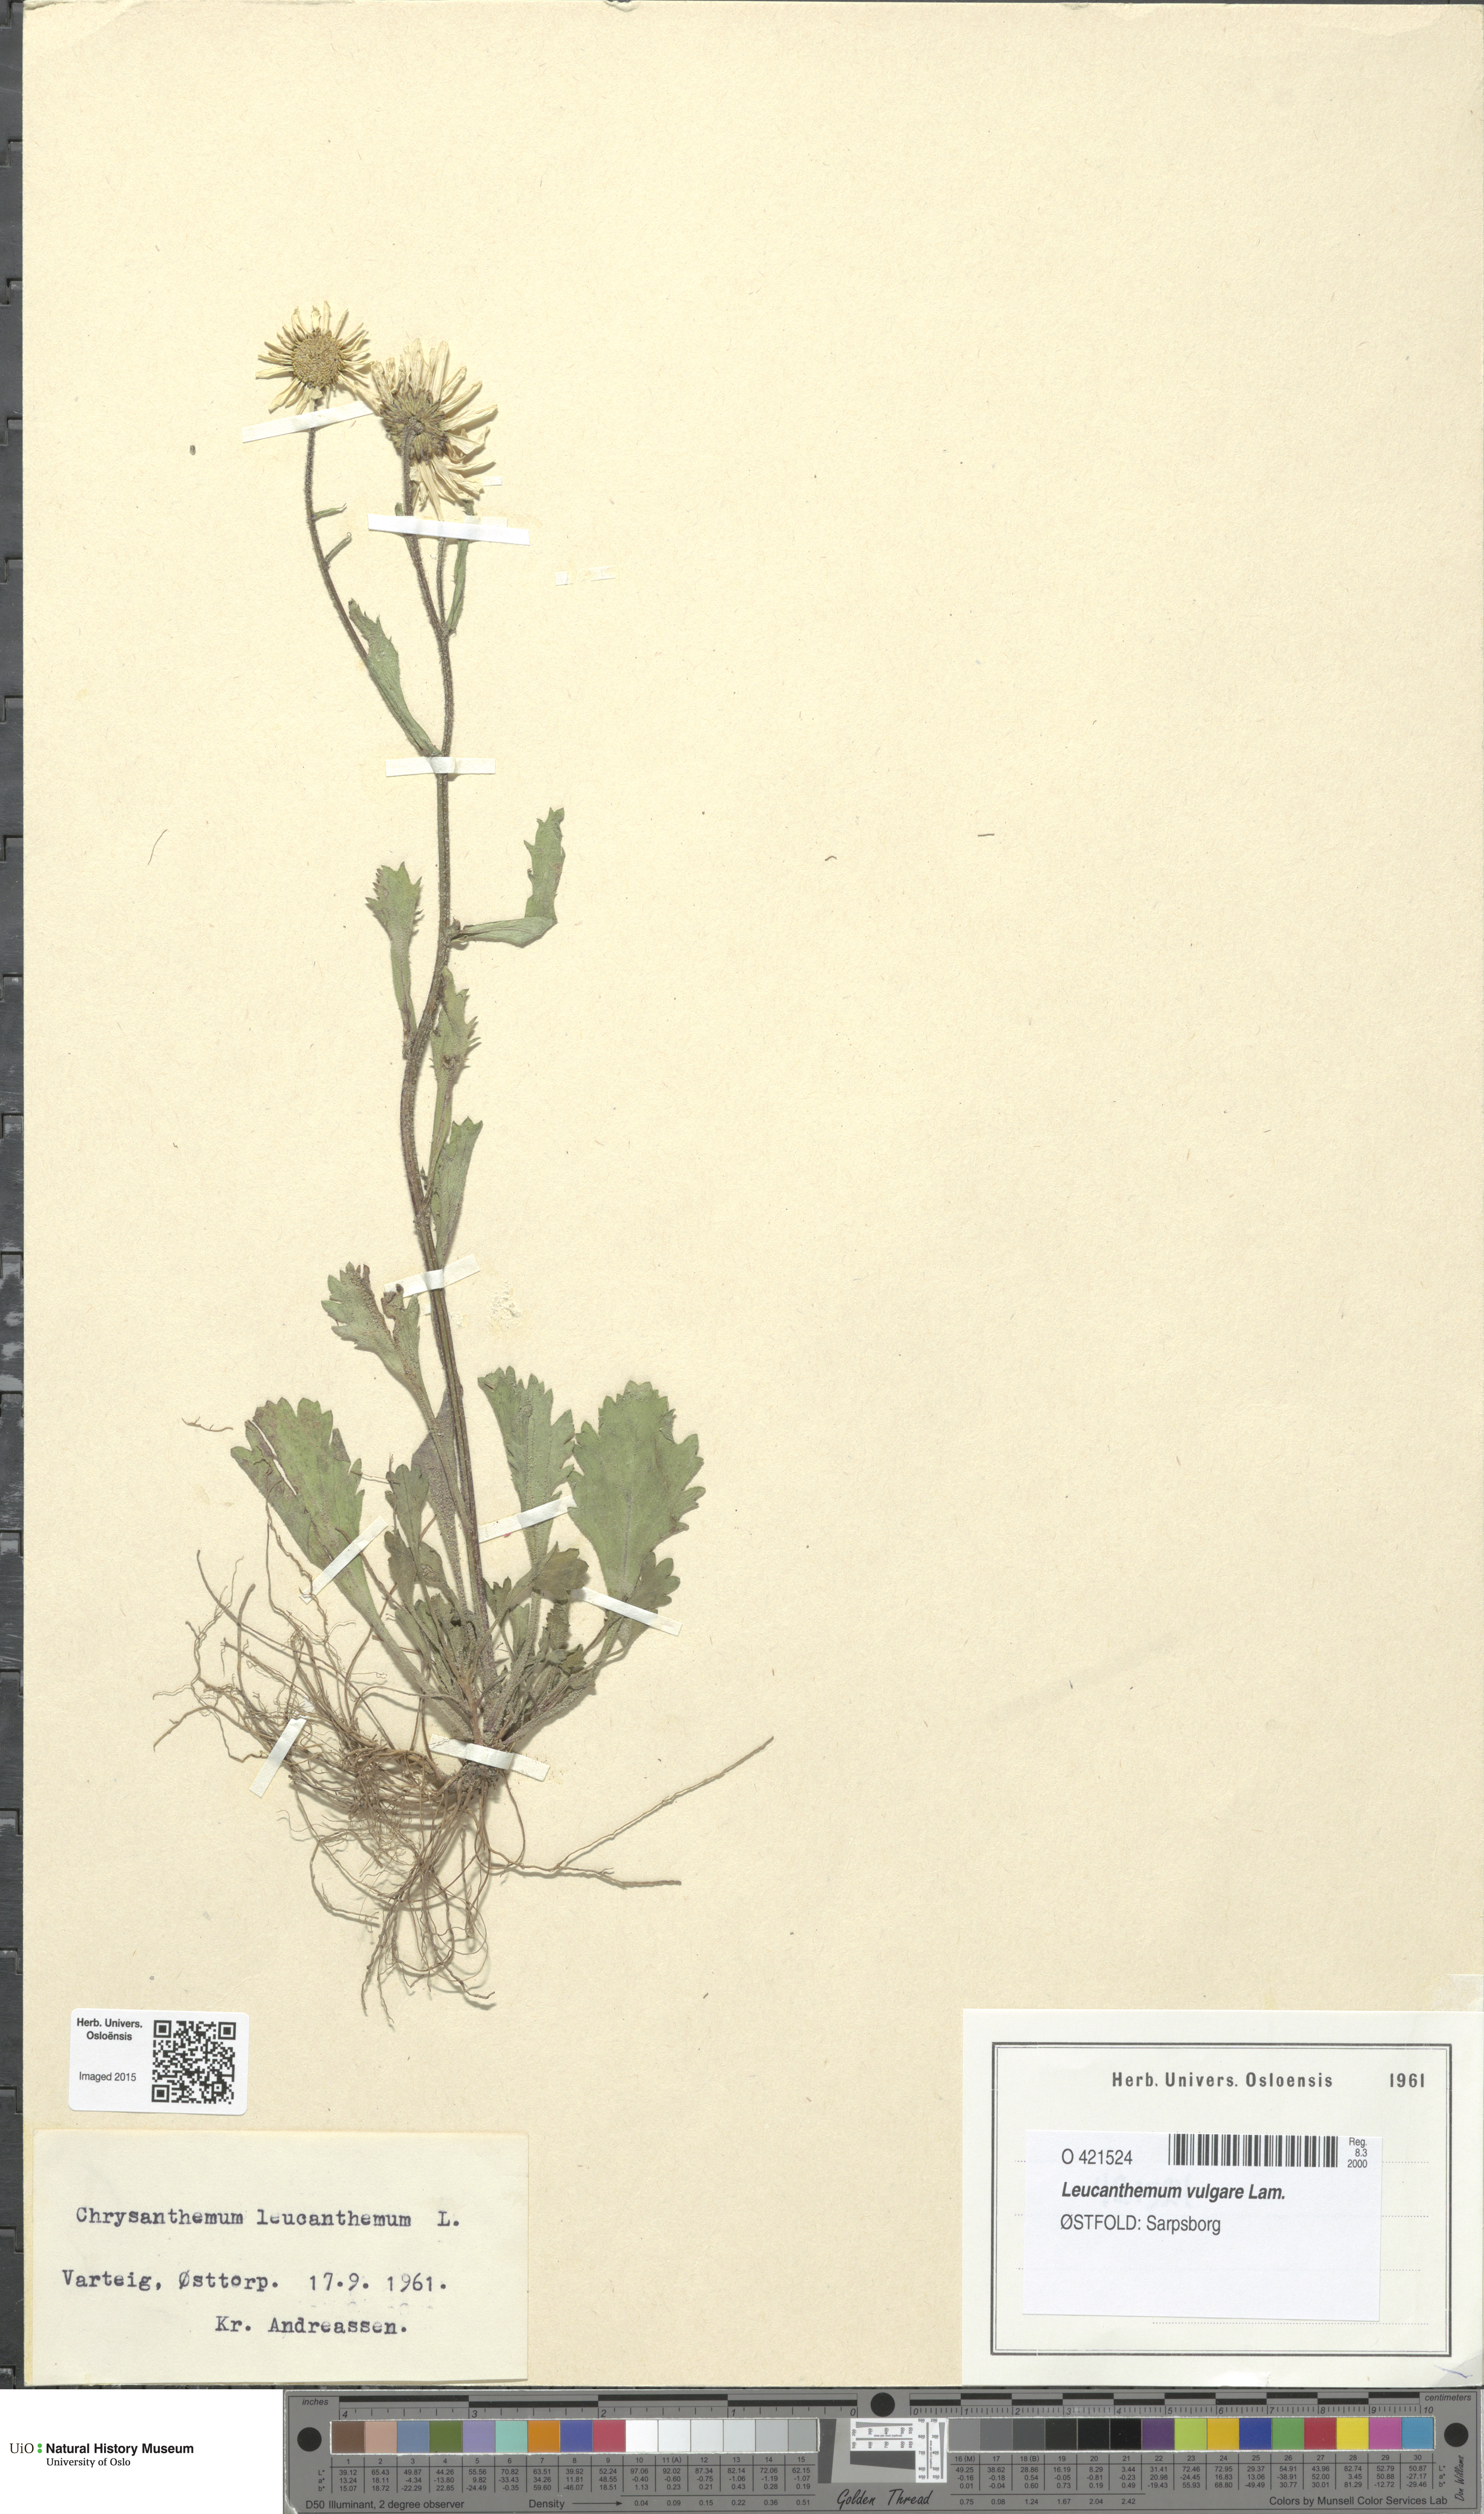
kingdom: Plantae
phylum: Tracheophyta
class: Magnoliopsida
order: Asterales
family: Asteraceae
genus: Leucanthemum
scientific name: Leucanthemum vulgare
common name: Oxeye daisy
